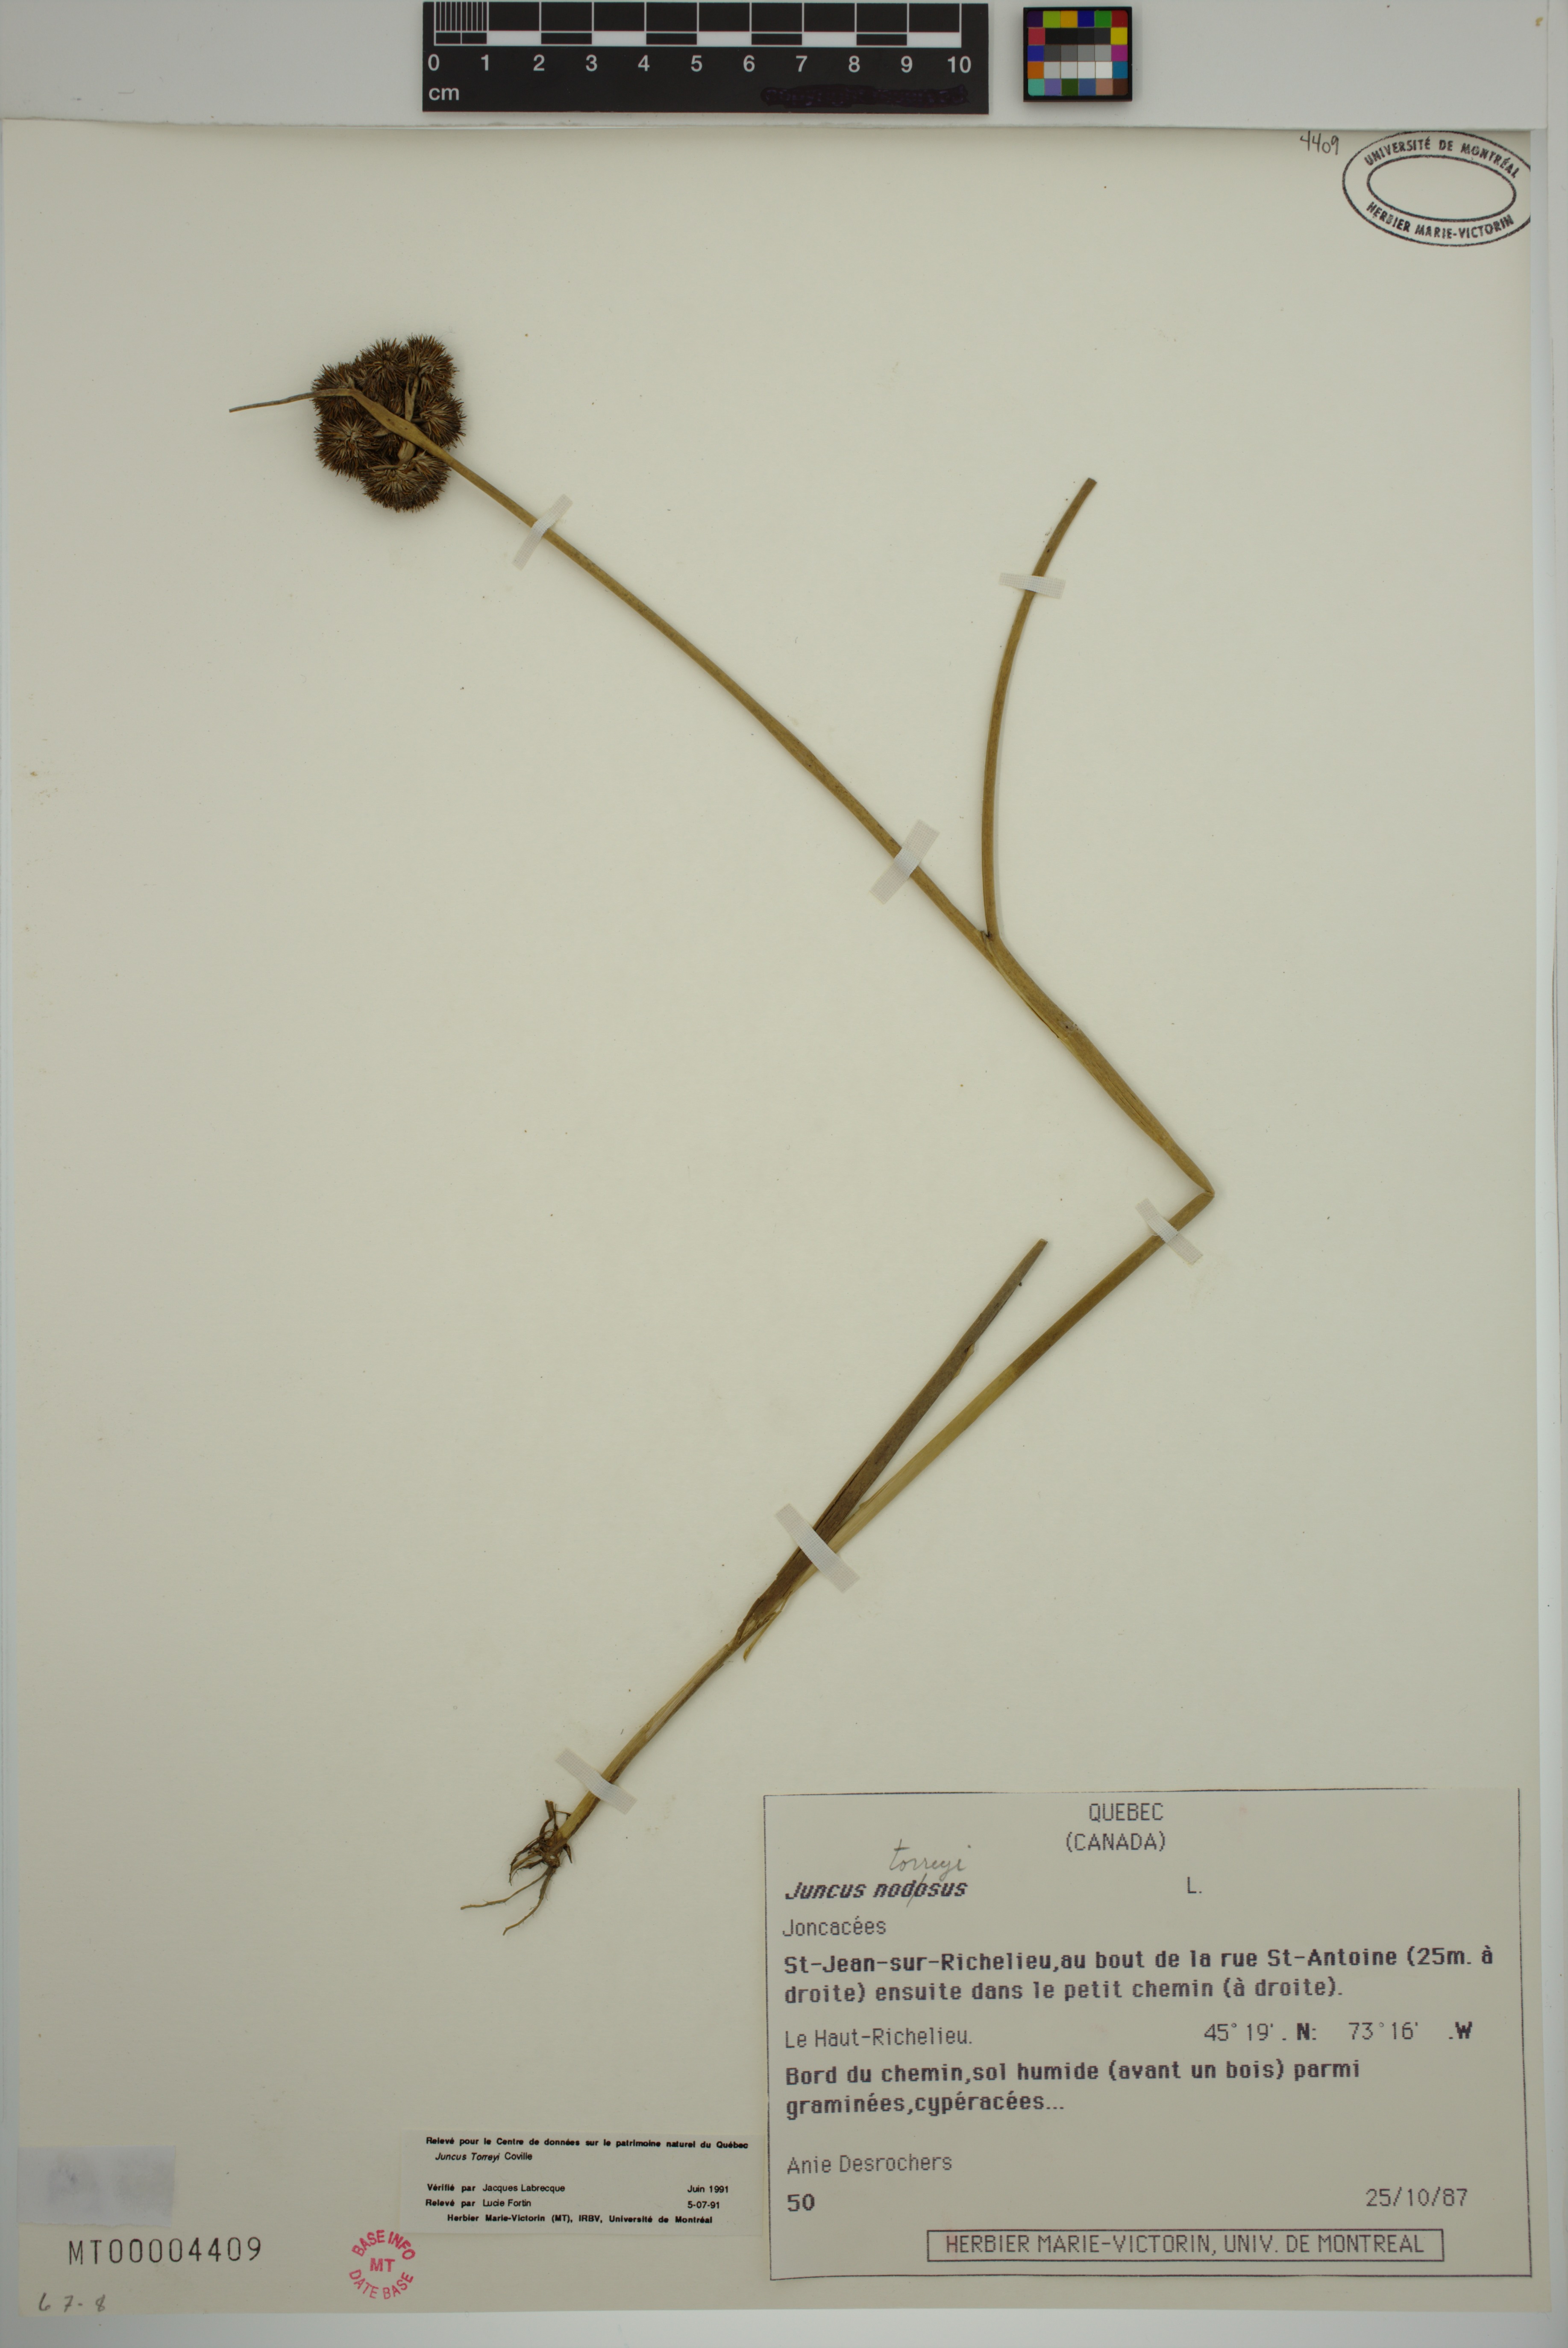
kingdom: Plantae
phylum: Tracheophyta
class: Liliopsida
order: Poales
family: Juncaceae
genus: Juncus
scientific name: Juncus torreyi
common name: Torrey's rush
